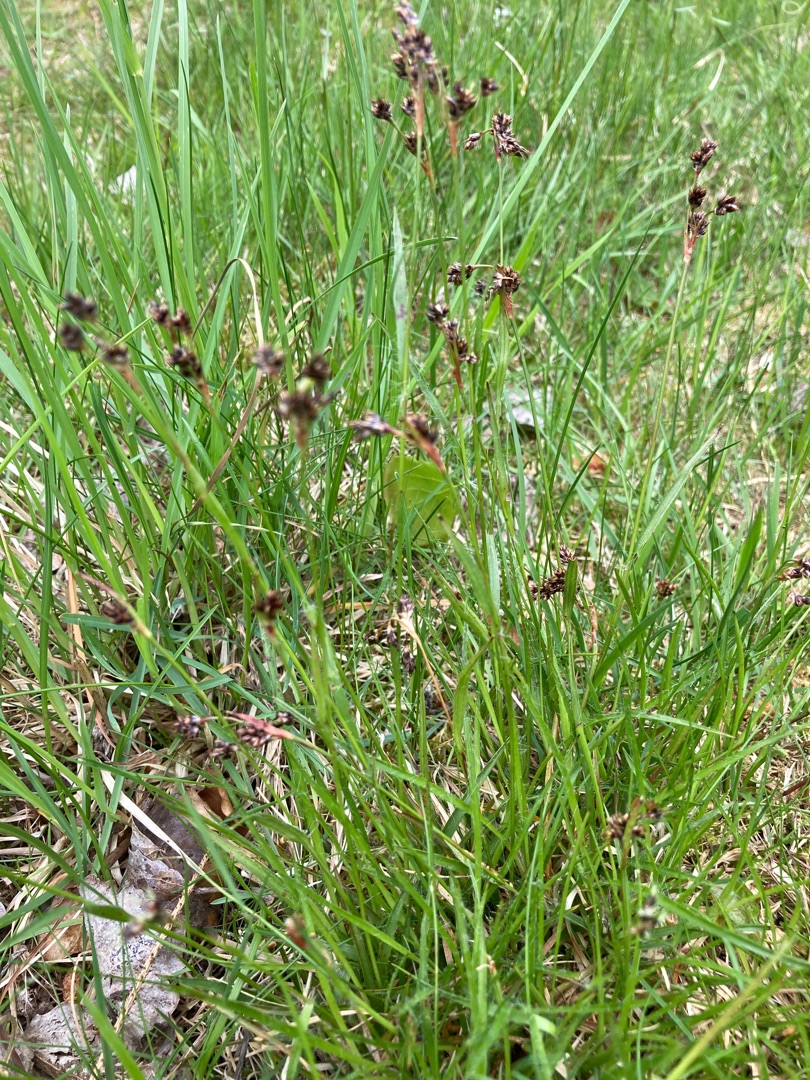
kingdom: Plantae
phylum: Tracheophyta
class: Liliopsida
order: Poales
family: Juncaceae
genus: Luzula
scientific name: Luzula campestris
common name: Mark-frytle
